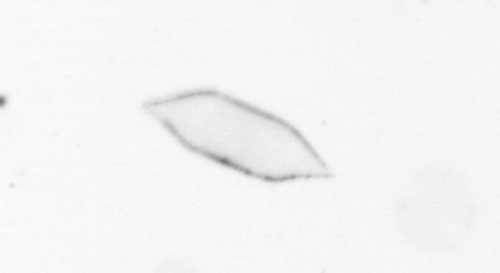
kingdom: Chromista
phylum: Ochrophyta
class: Bacillariophyceae
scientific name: Bacillariophyceae
